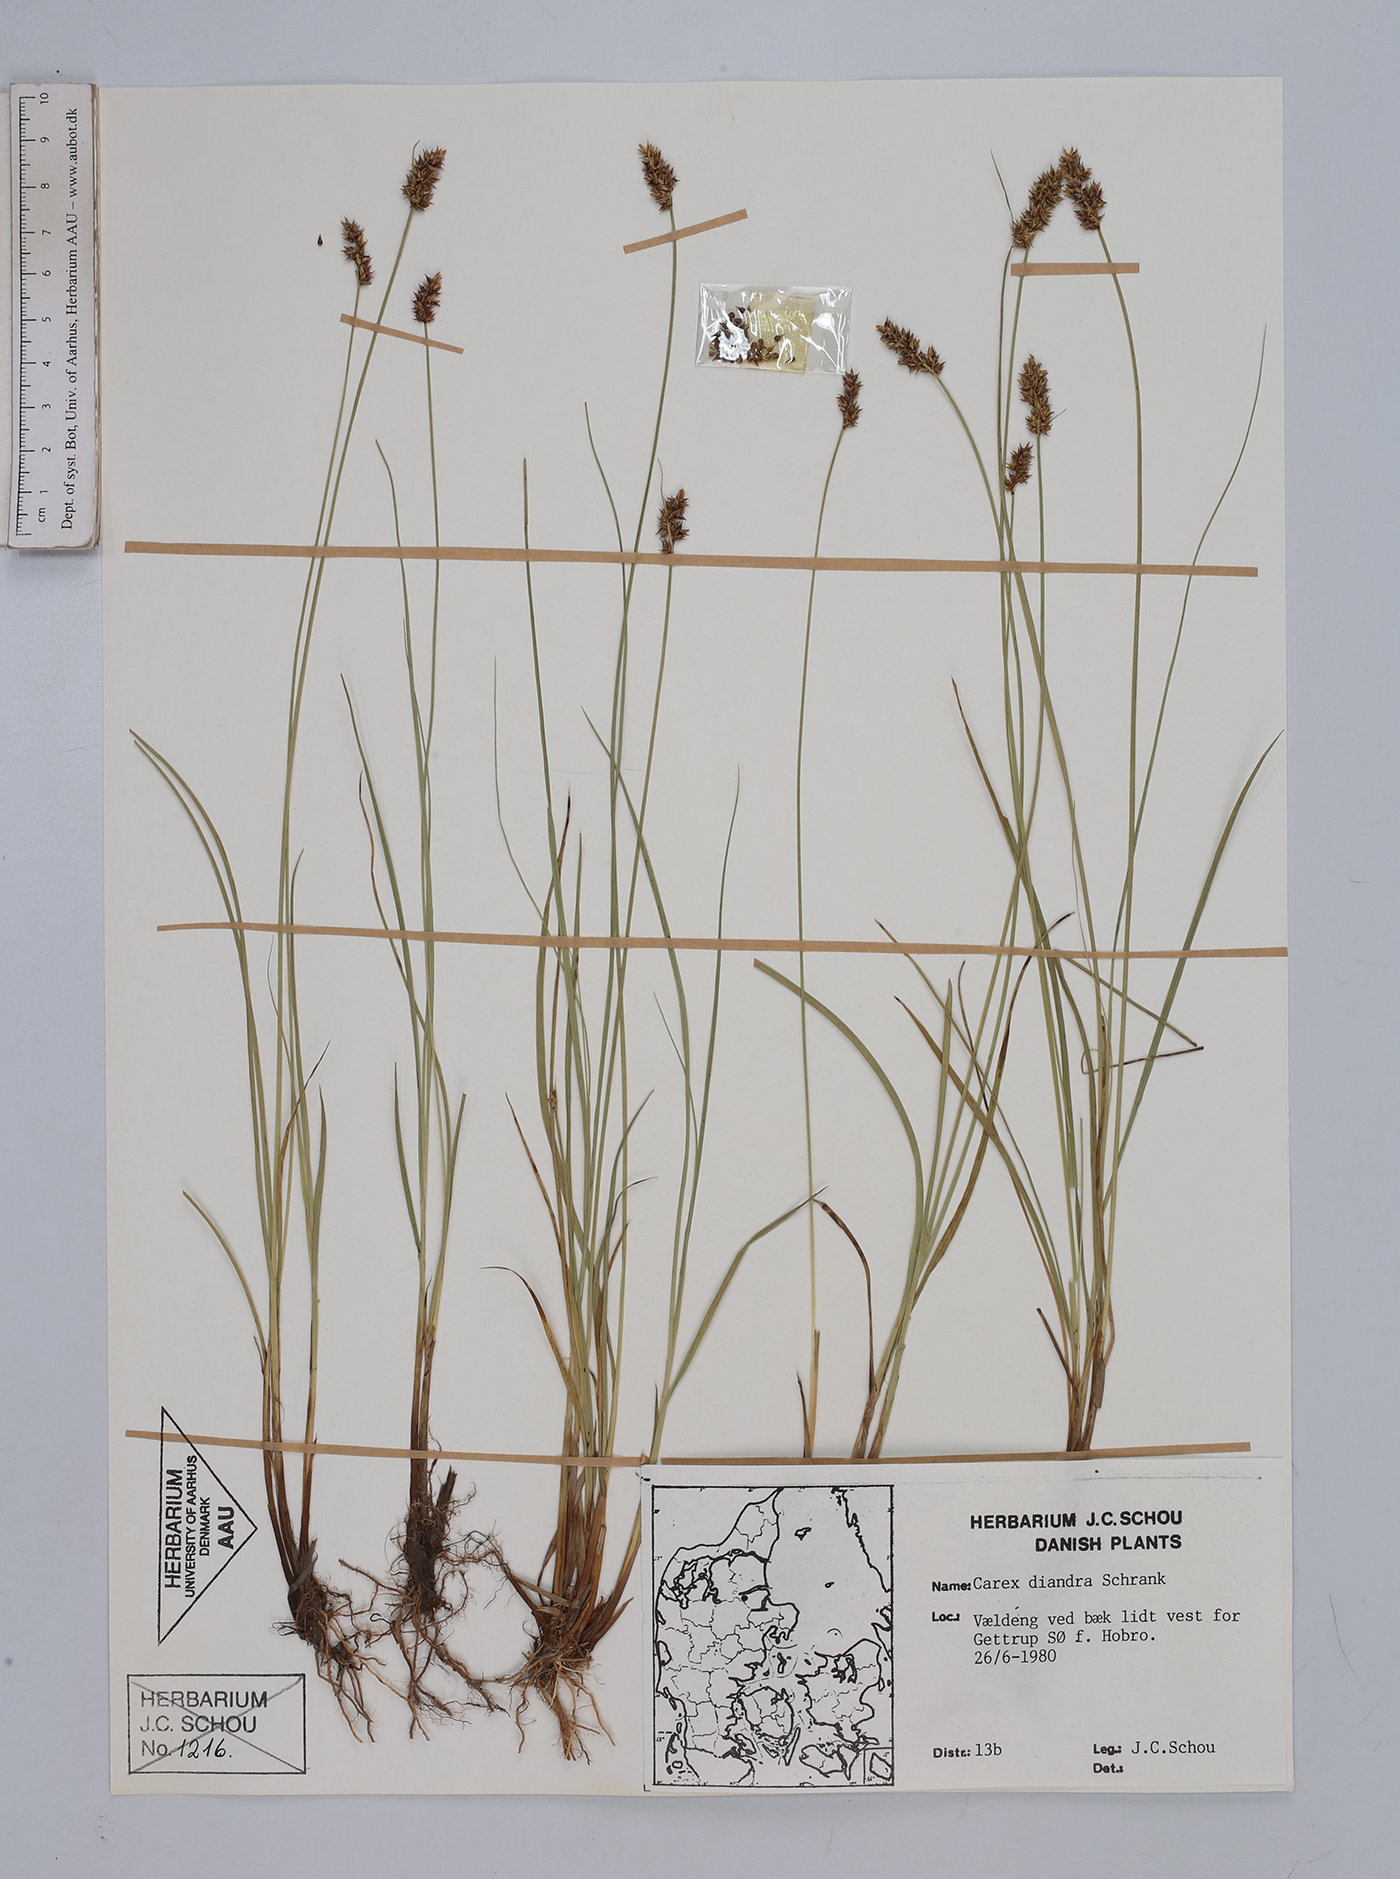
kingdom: Plantae
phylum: Tracheophyta
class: Liliopsida
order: Poales
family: Cyperaceae
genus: Carex
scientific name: Carex diandra
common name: Lesser tussock-sedge
